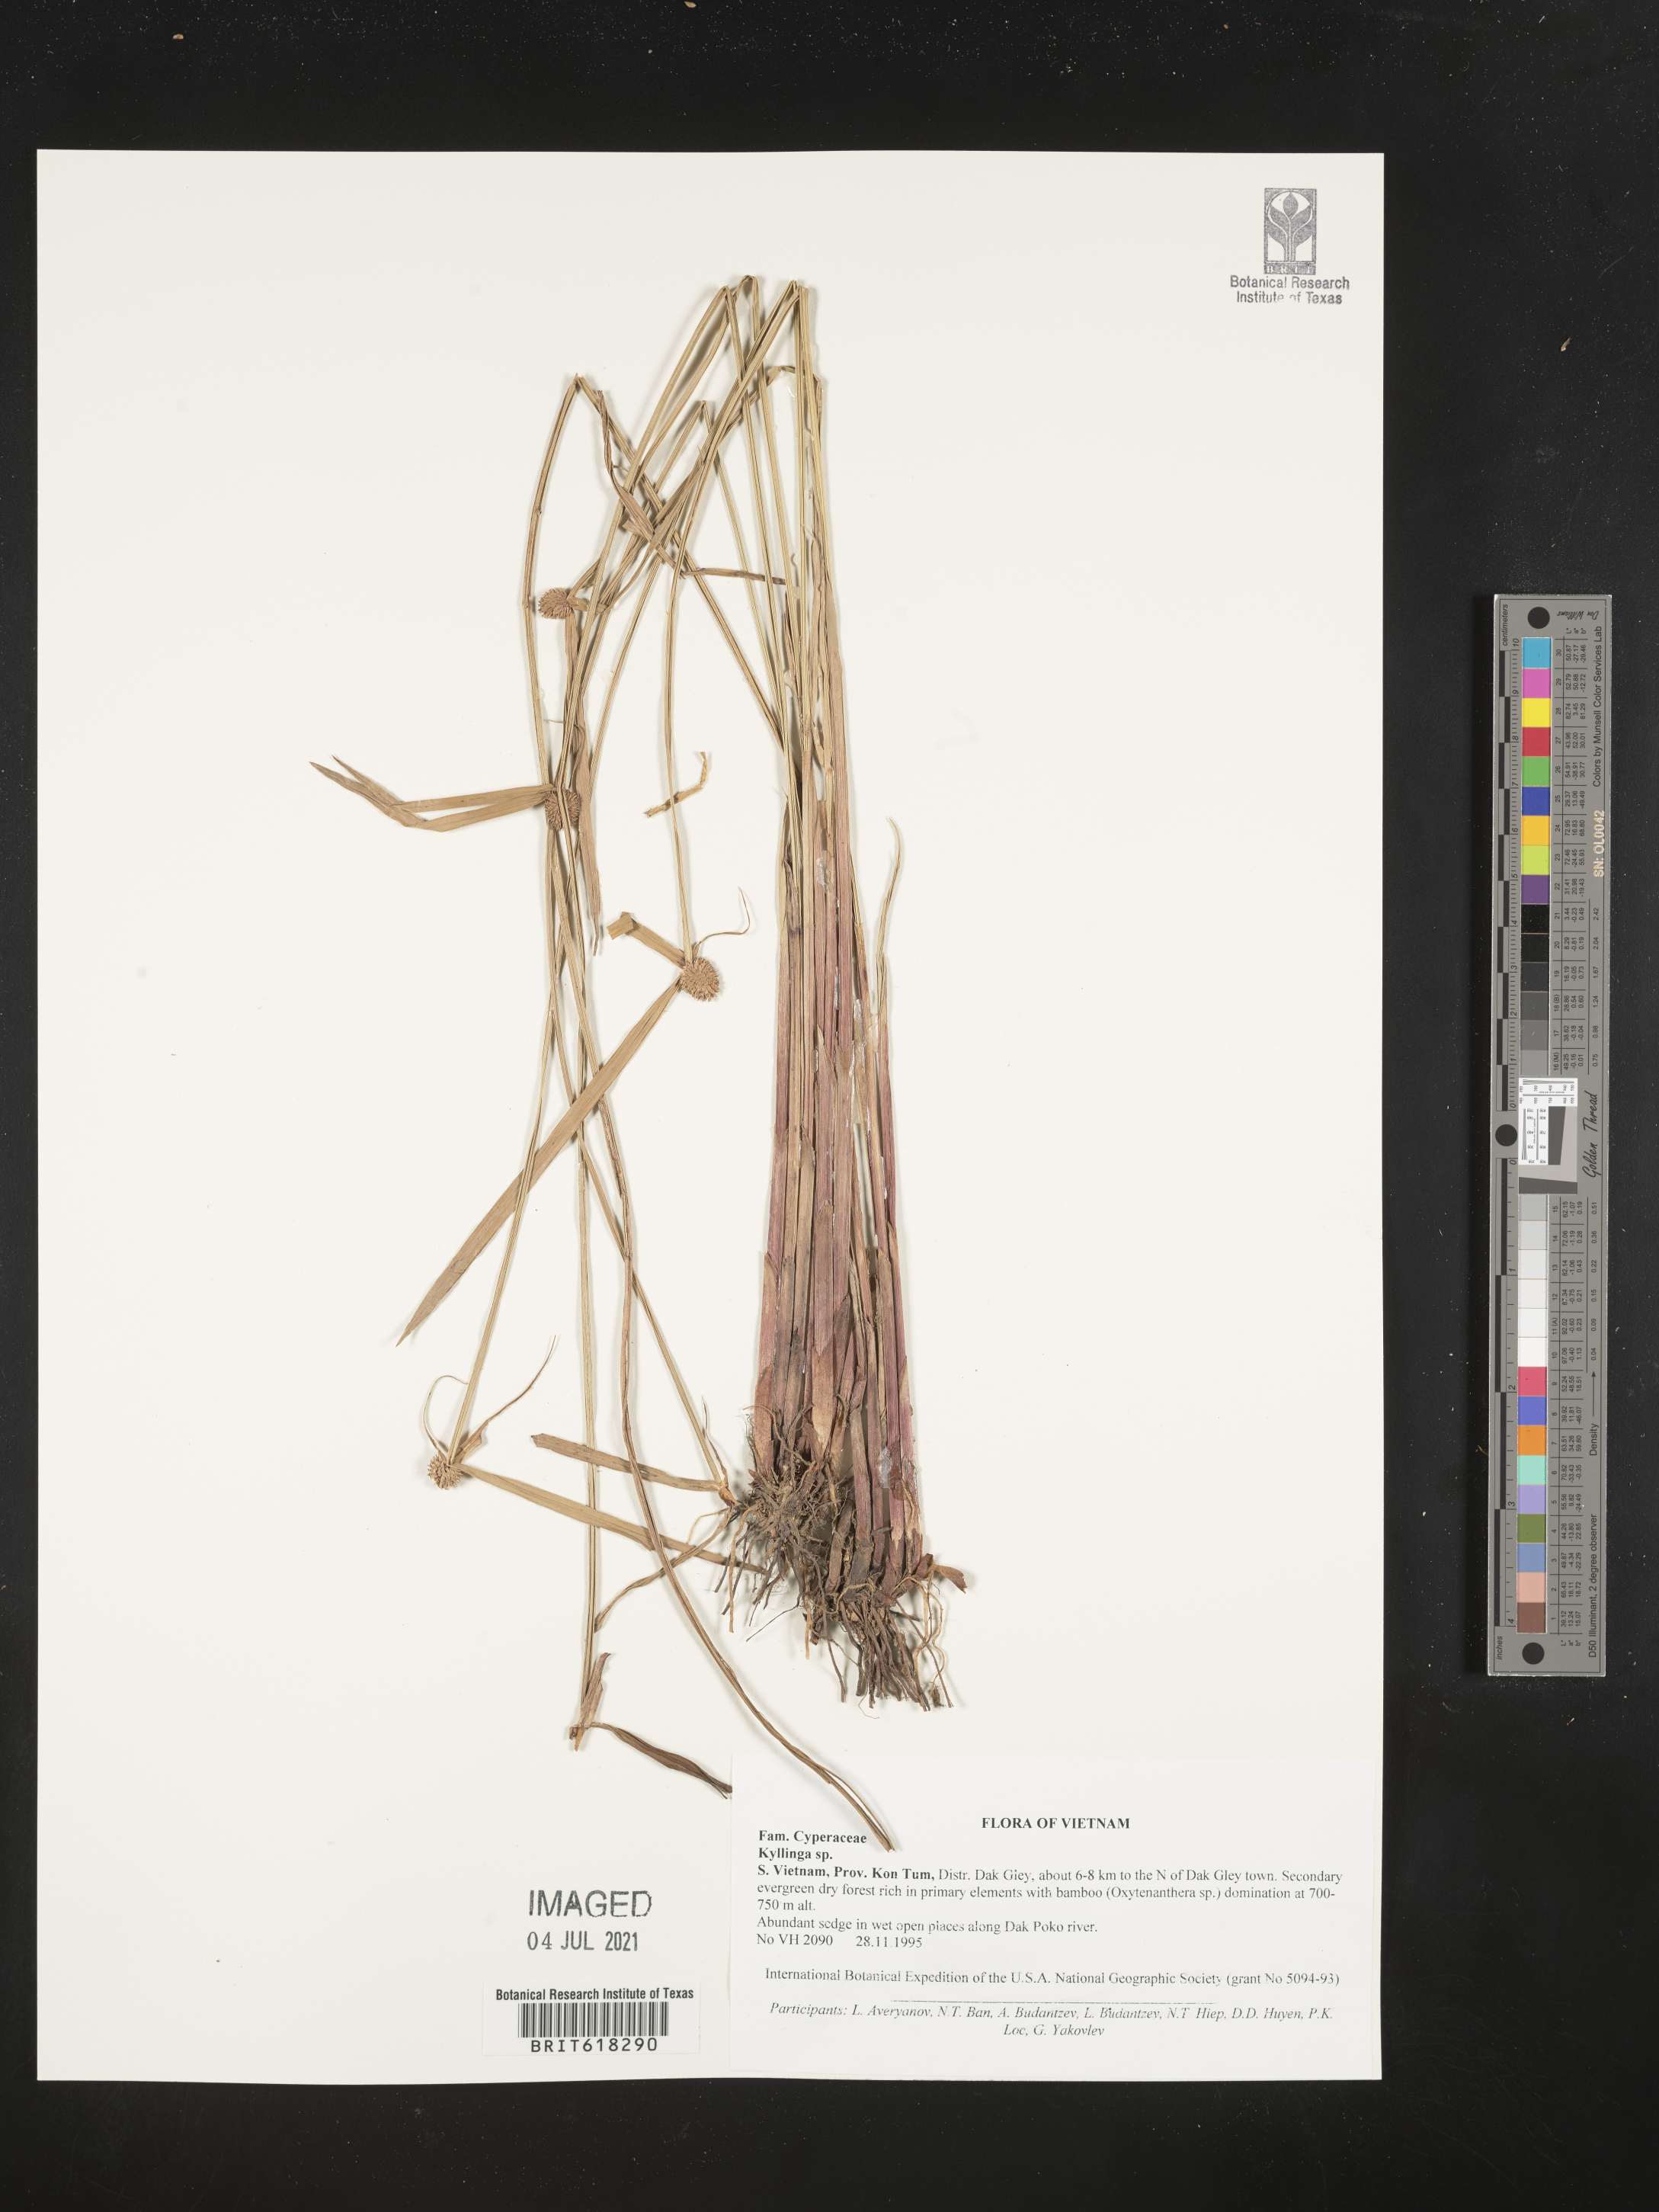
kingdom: Plantae
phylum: Tracheophyta
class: Liliopsida
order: Poales
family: Cyperaceae
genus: Cyperus
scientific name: Cyperus
